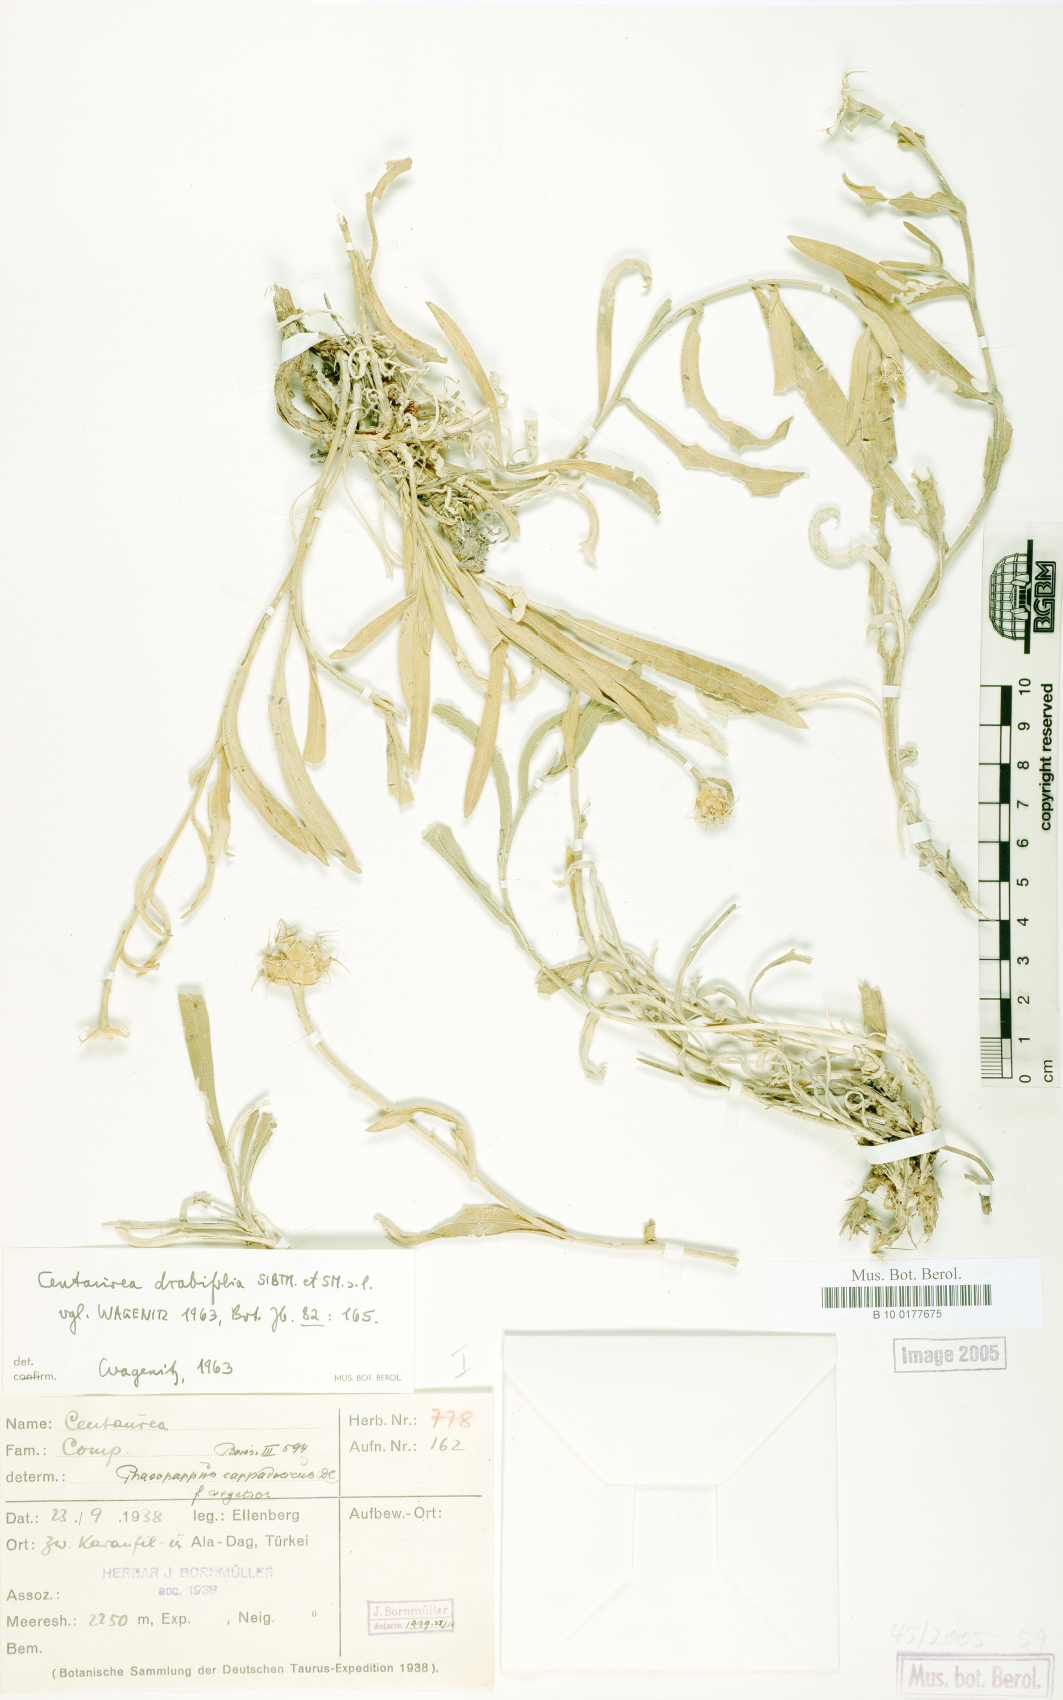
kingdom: Plantae
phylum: Tracheophyta
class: Magnoliopsida
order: Asterales
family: Asteraceae
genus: Centaurea
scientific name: Centaurea drabifolia
